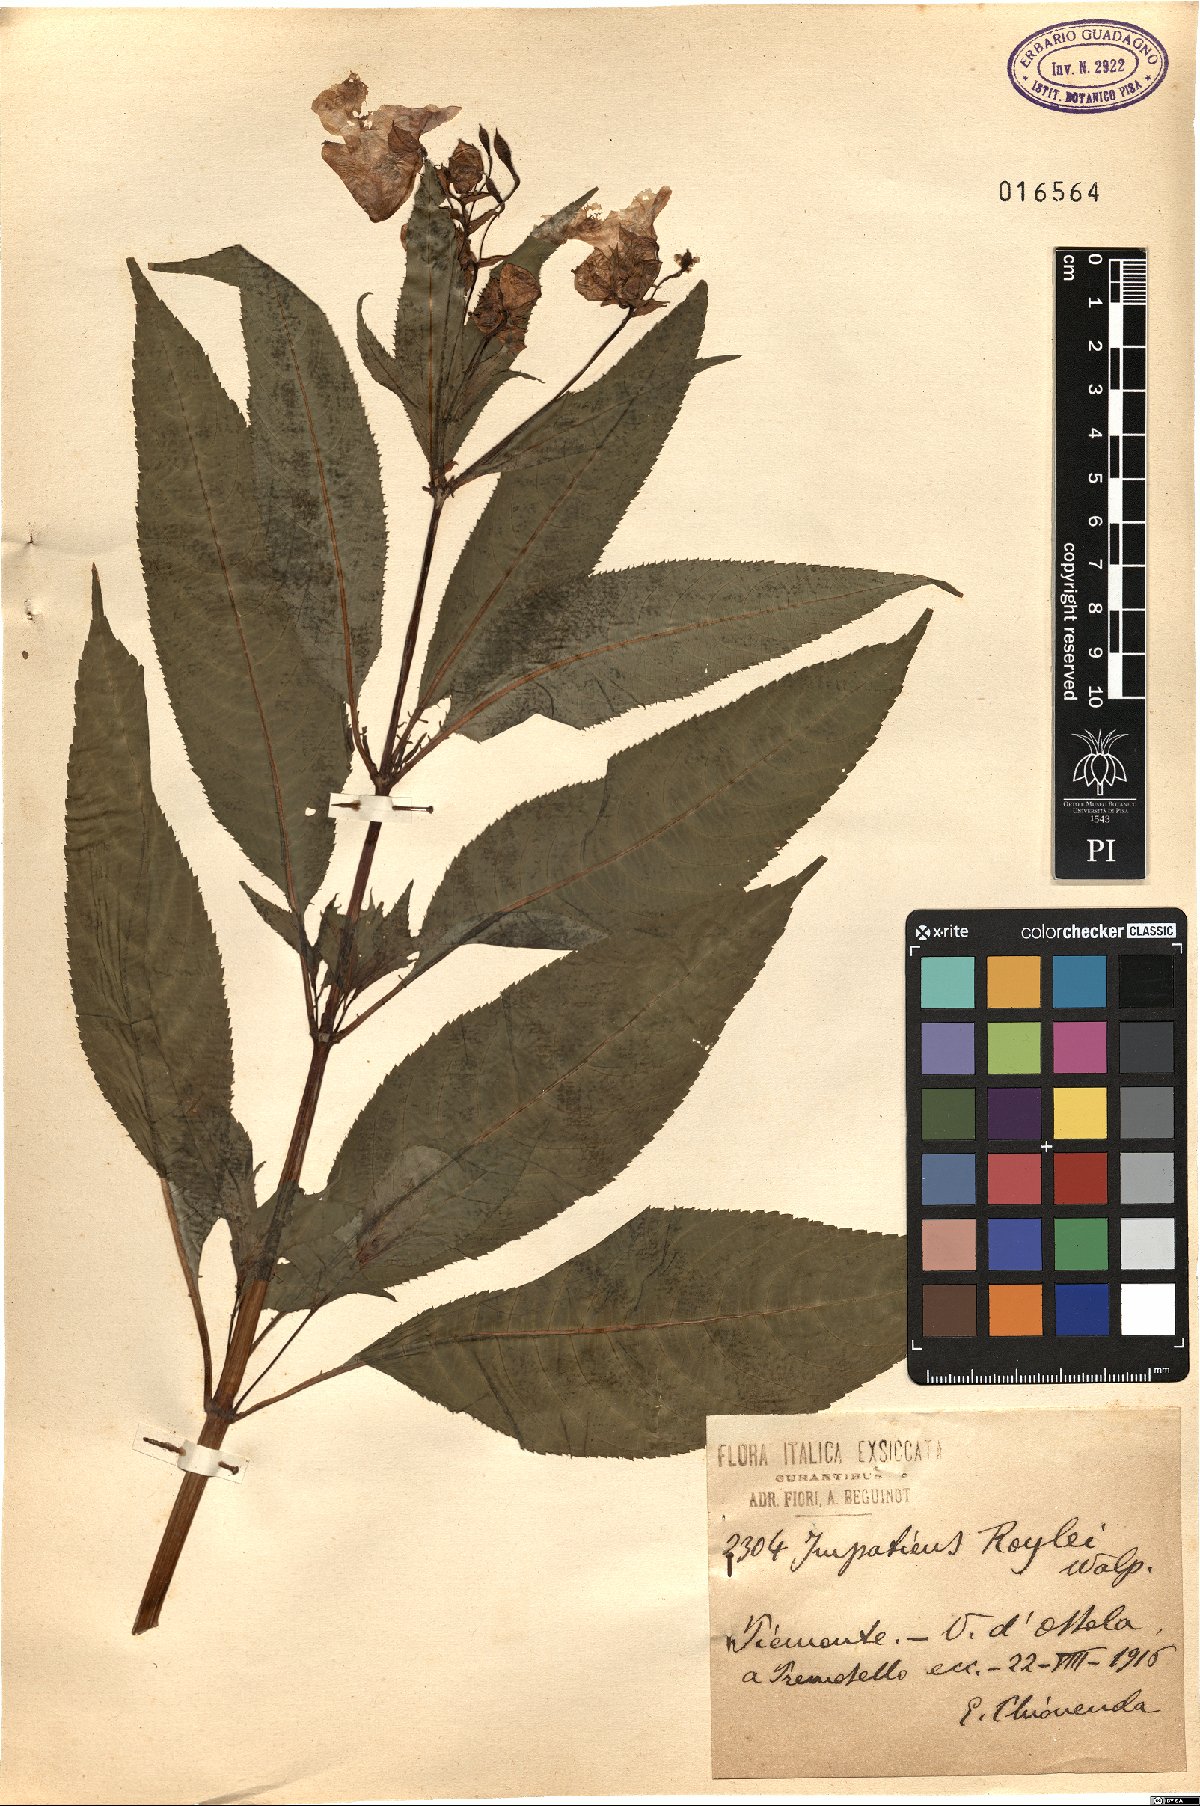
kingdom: Plantae
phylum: Tracheophyta
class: Magnoliopsida
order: Ericales
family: Balsaminaceae
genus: Impatiens
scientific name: Impatiens glandulifera
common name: Himalayan balsam
